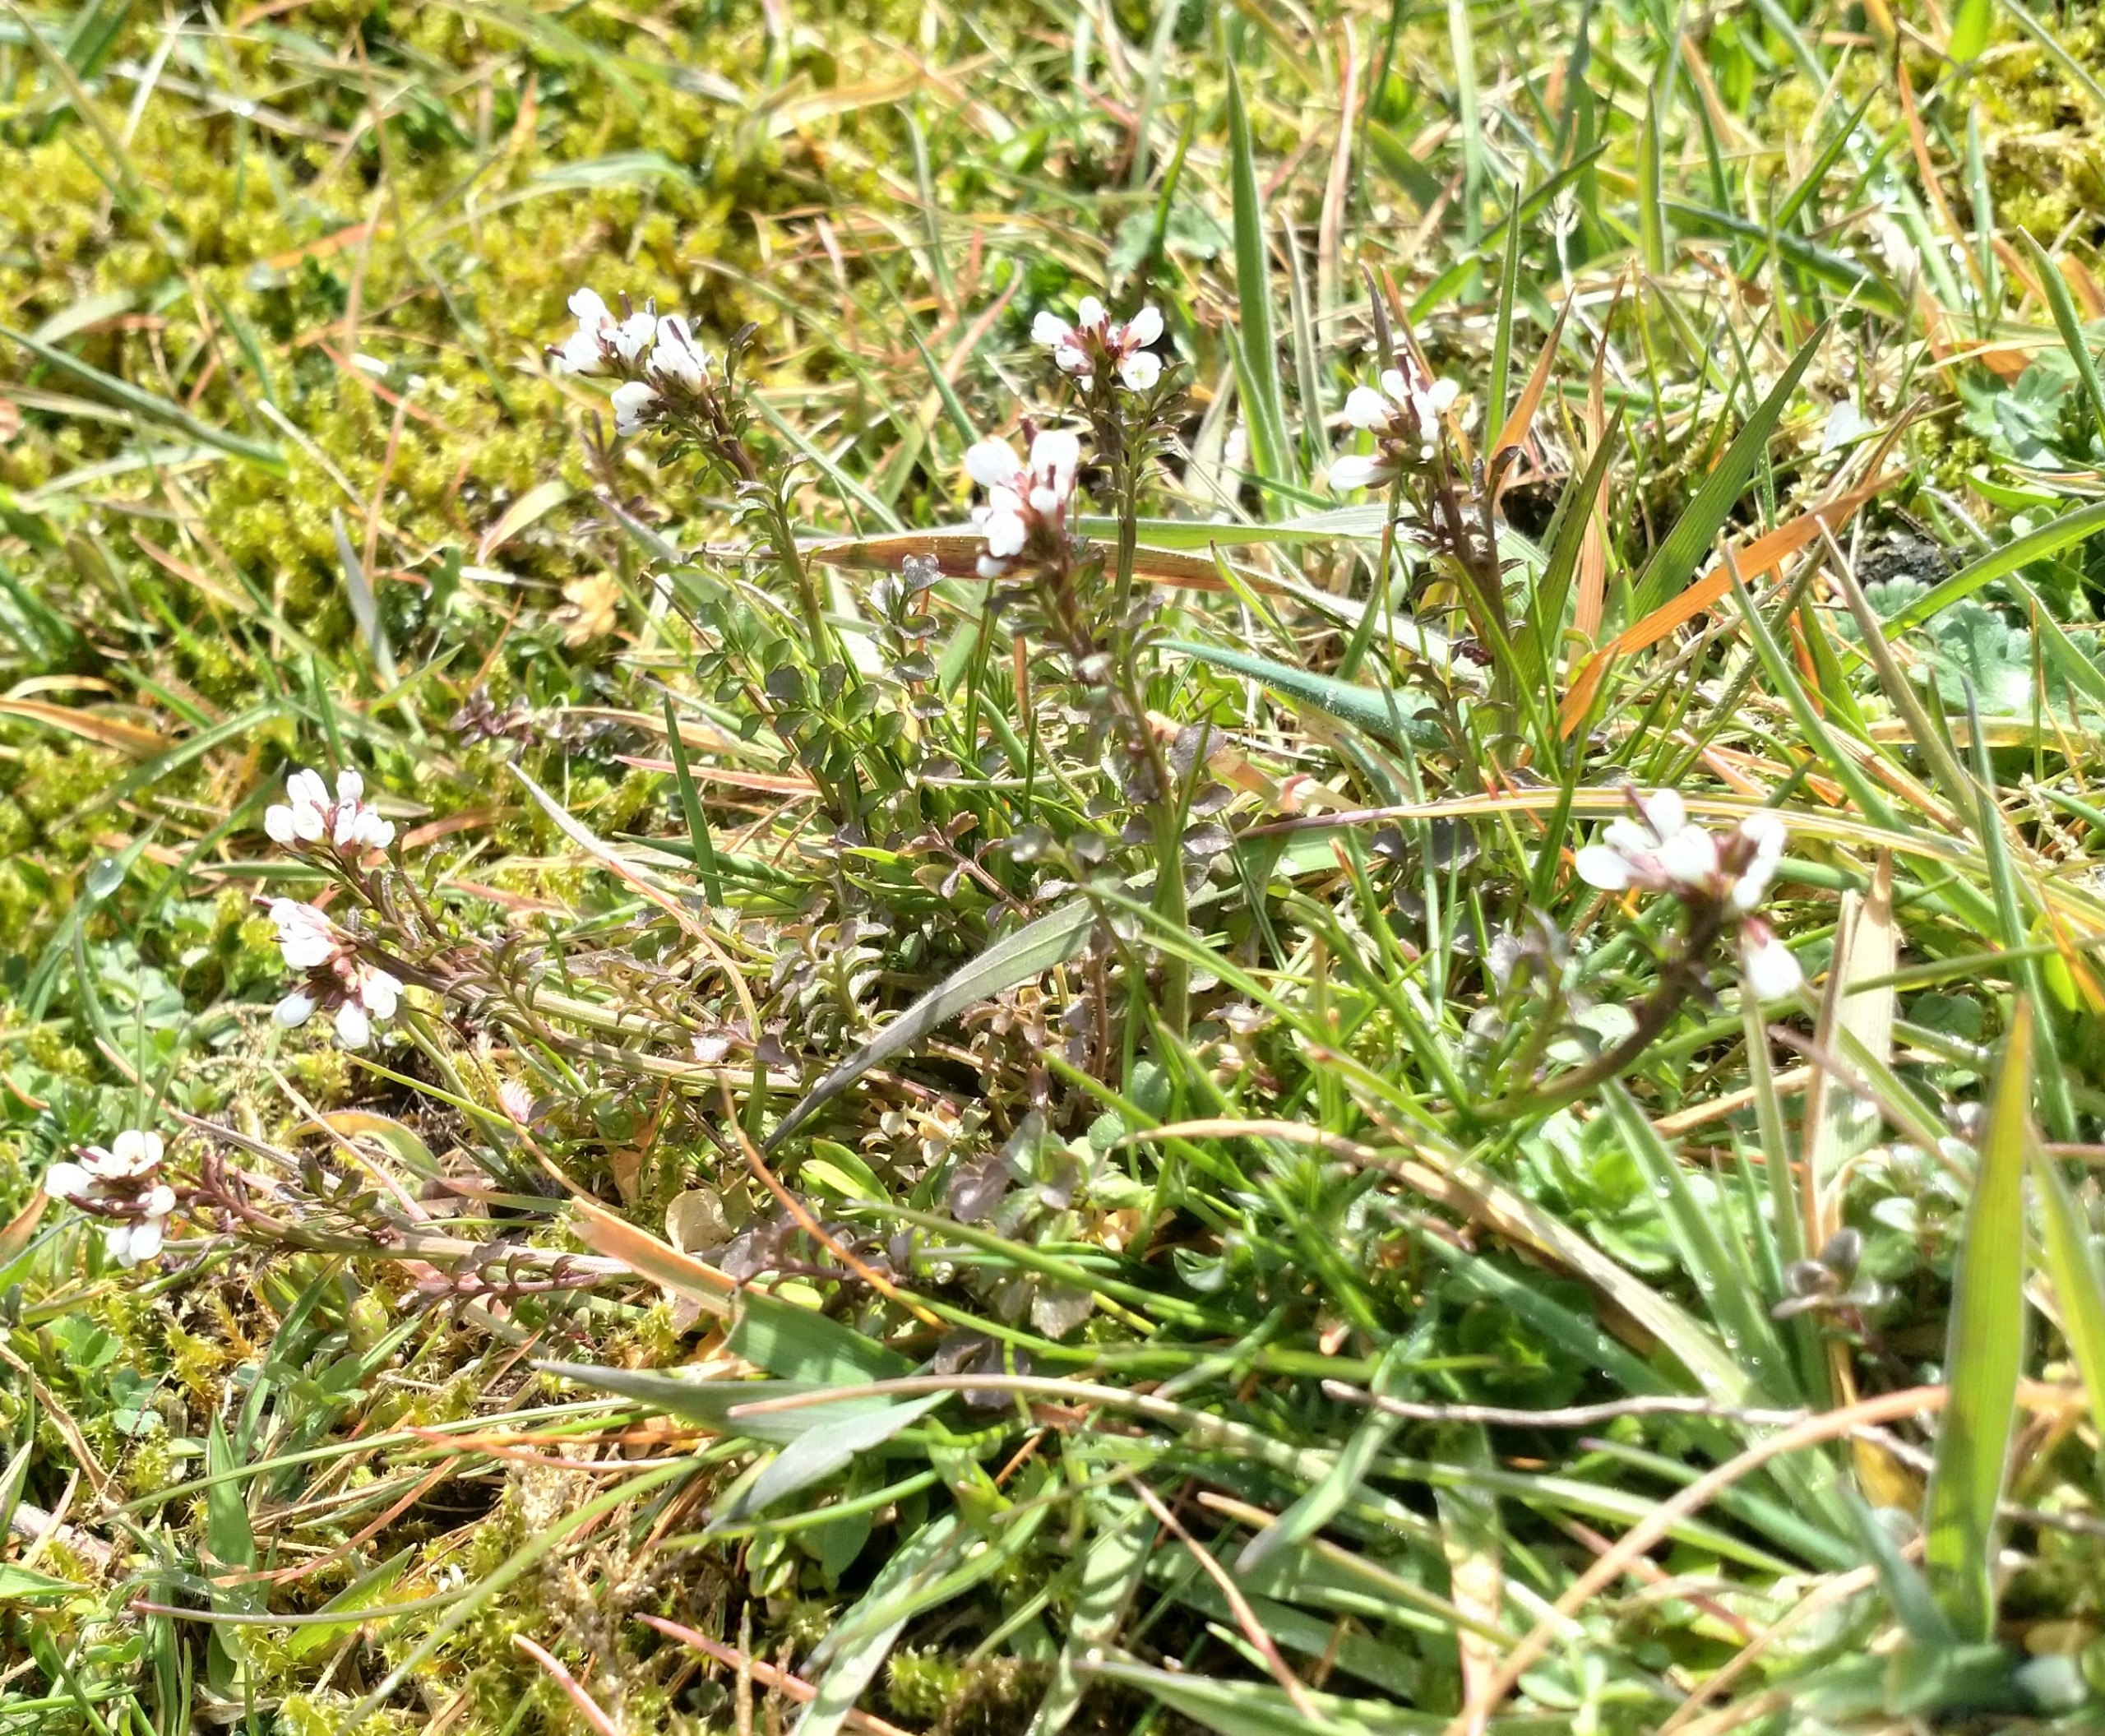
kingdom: Plantae
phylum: Tracheophyta
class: Magnoliopsida
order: Brassicales
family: Brassicaceae
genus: Cardamine
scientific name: Cardamine hirsuta
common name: Roset-springklap
